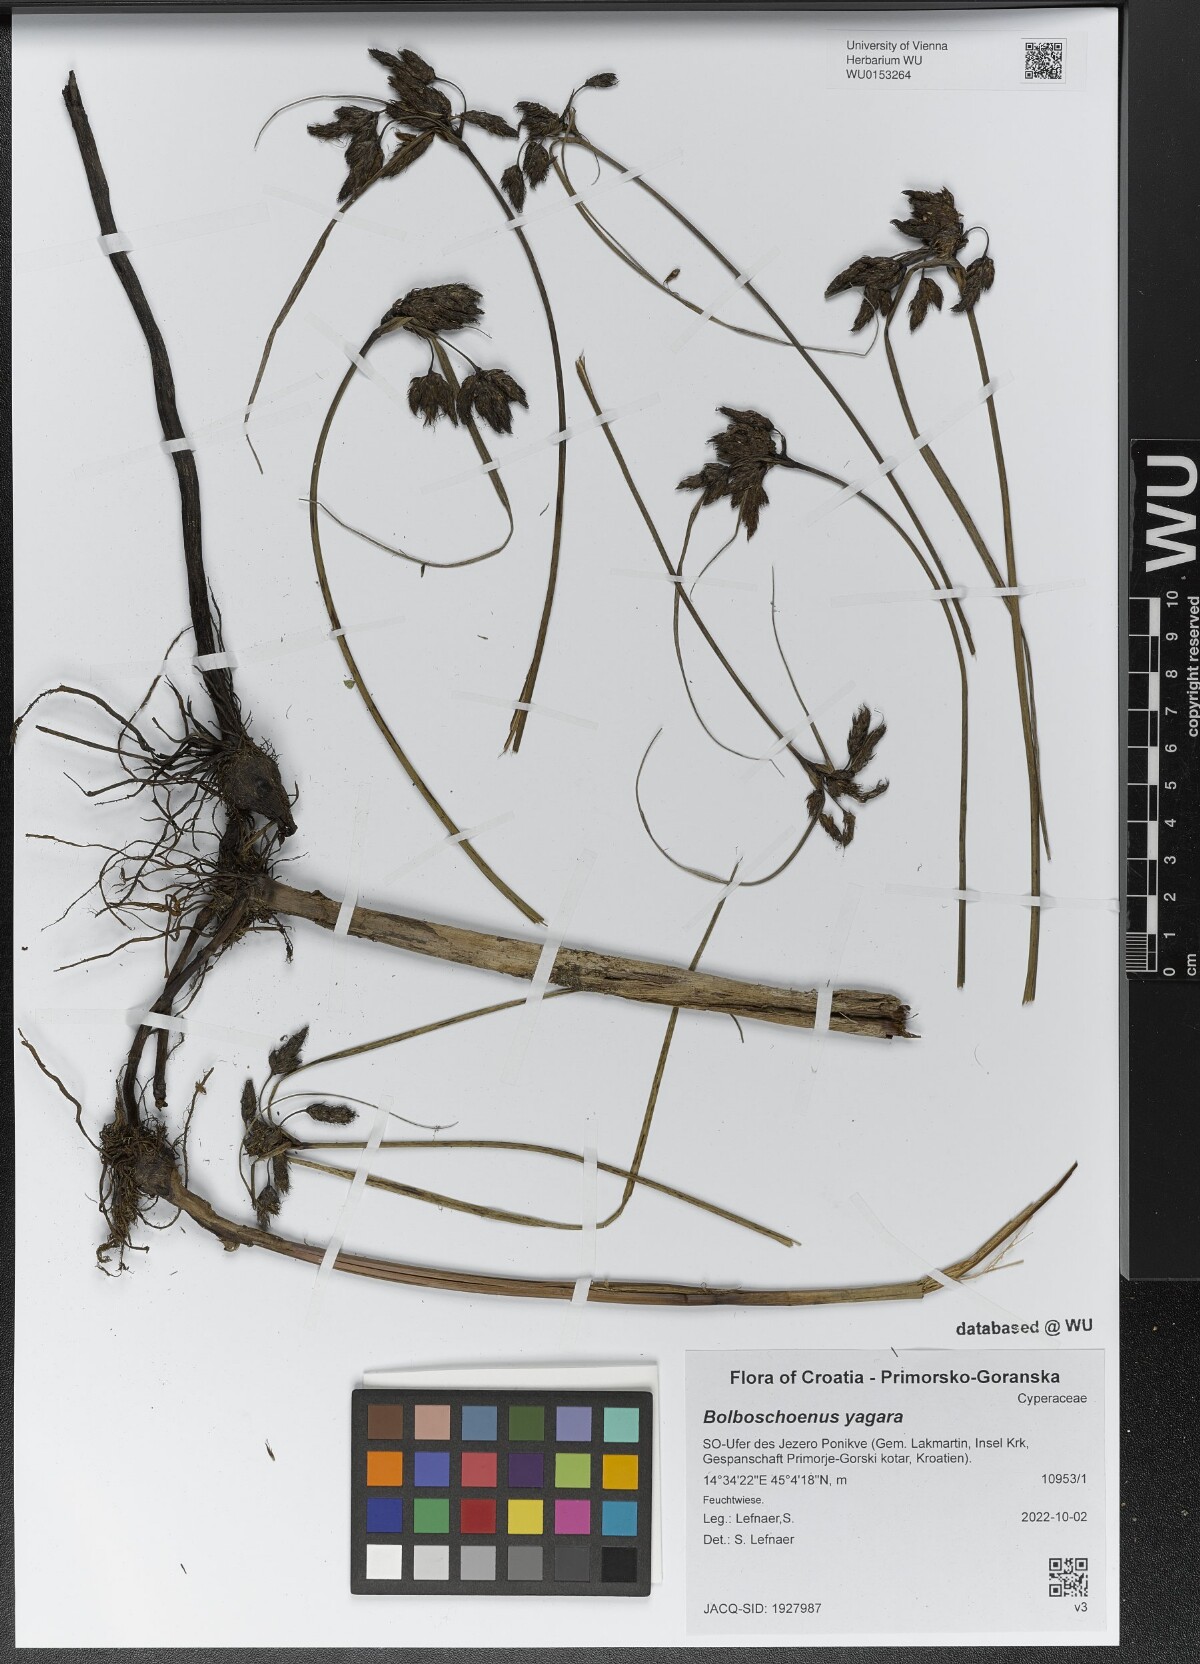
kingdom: Plantae
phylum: Tracheophyta
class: Liliopsida
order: Poales
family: Cyperaceae
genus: Bolboschoenus
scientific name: Bolboschoenus yagara
